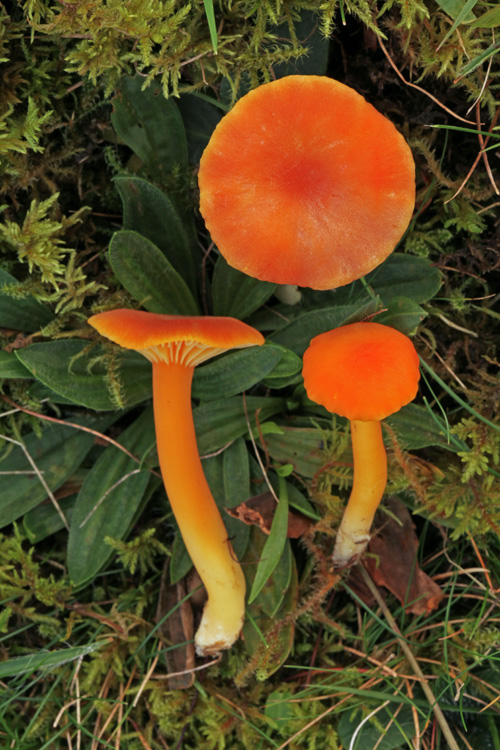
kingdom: Fungi
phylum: Basidiomycota
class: Agaricomycetes
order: Agaricales
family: Hygrophoraceae
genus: Hygrocybe
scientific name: Hygrocybe miniata
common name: mønje-vokshat
